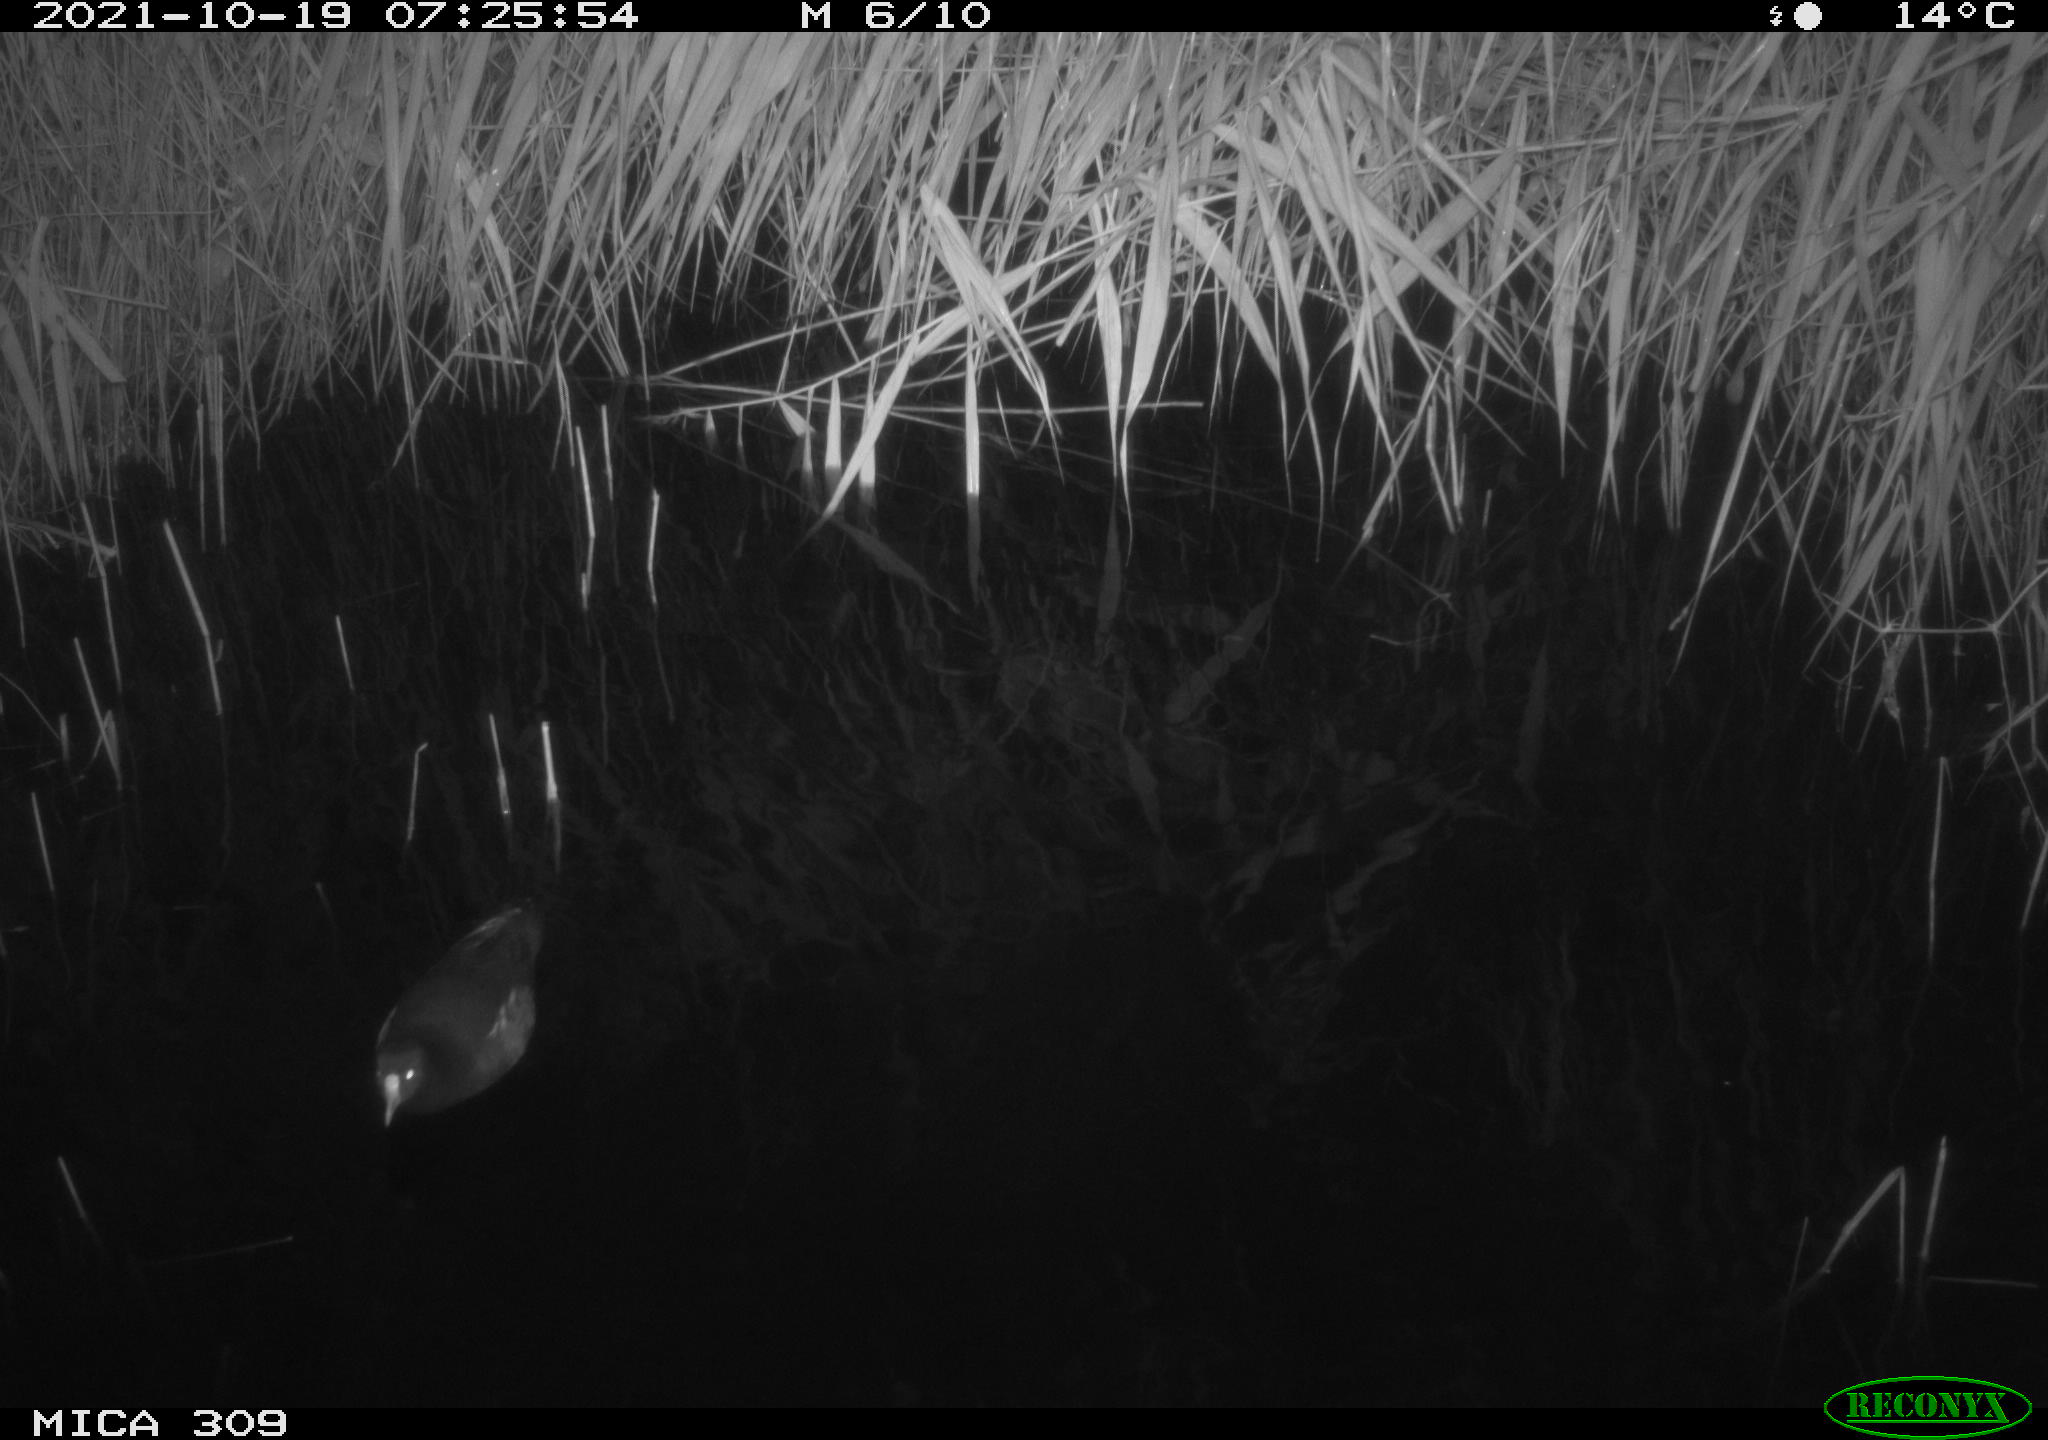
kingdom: Animalia
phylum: Chordata
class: Aves
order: Gruiformes
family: Rallidae
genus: Gallinula
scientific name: Gallinula chloropus
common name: Common moorhen
